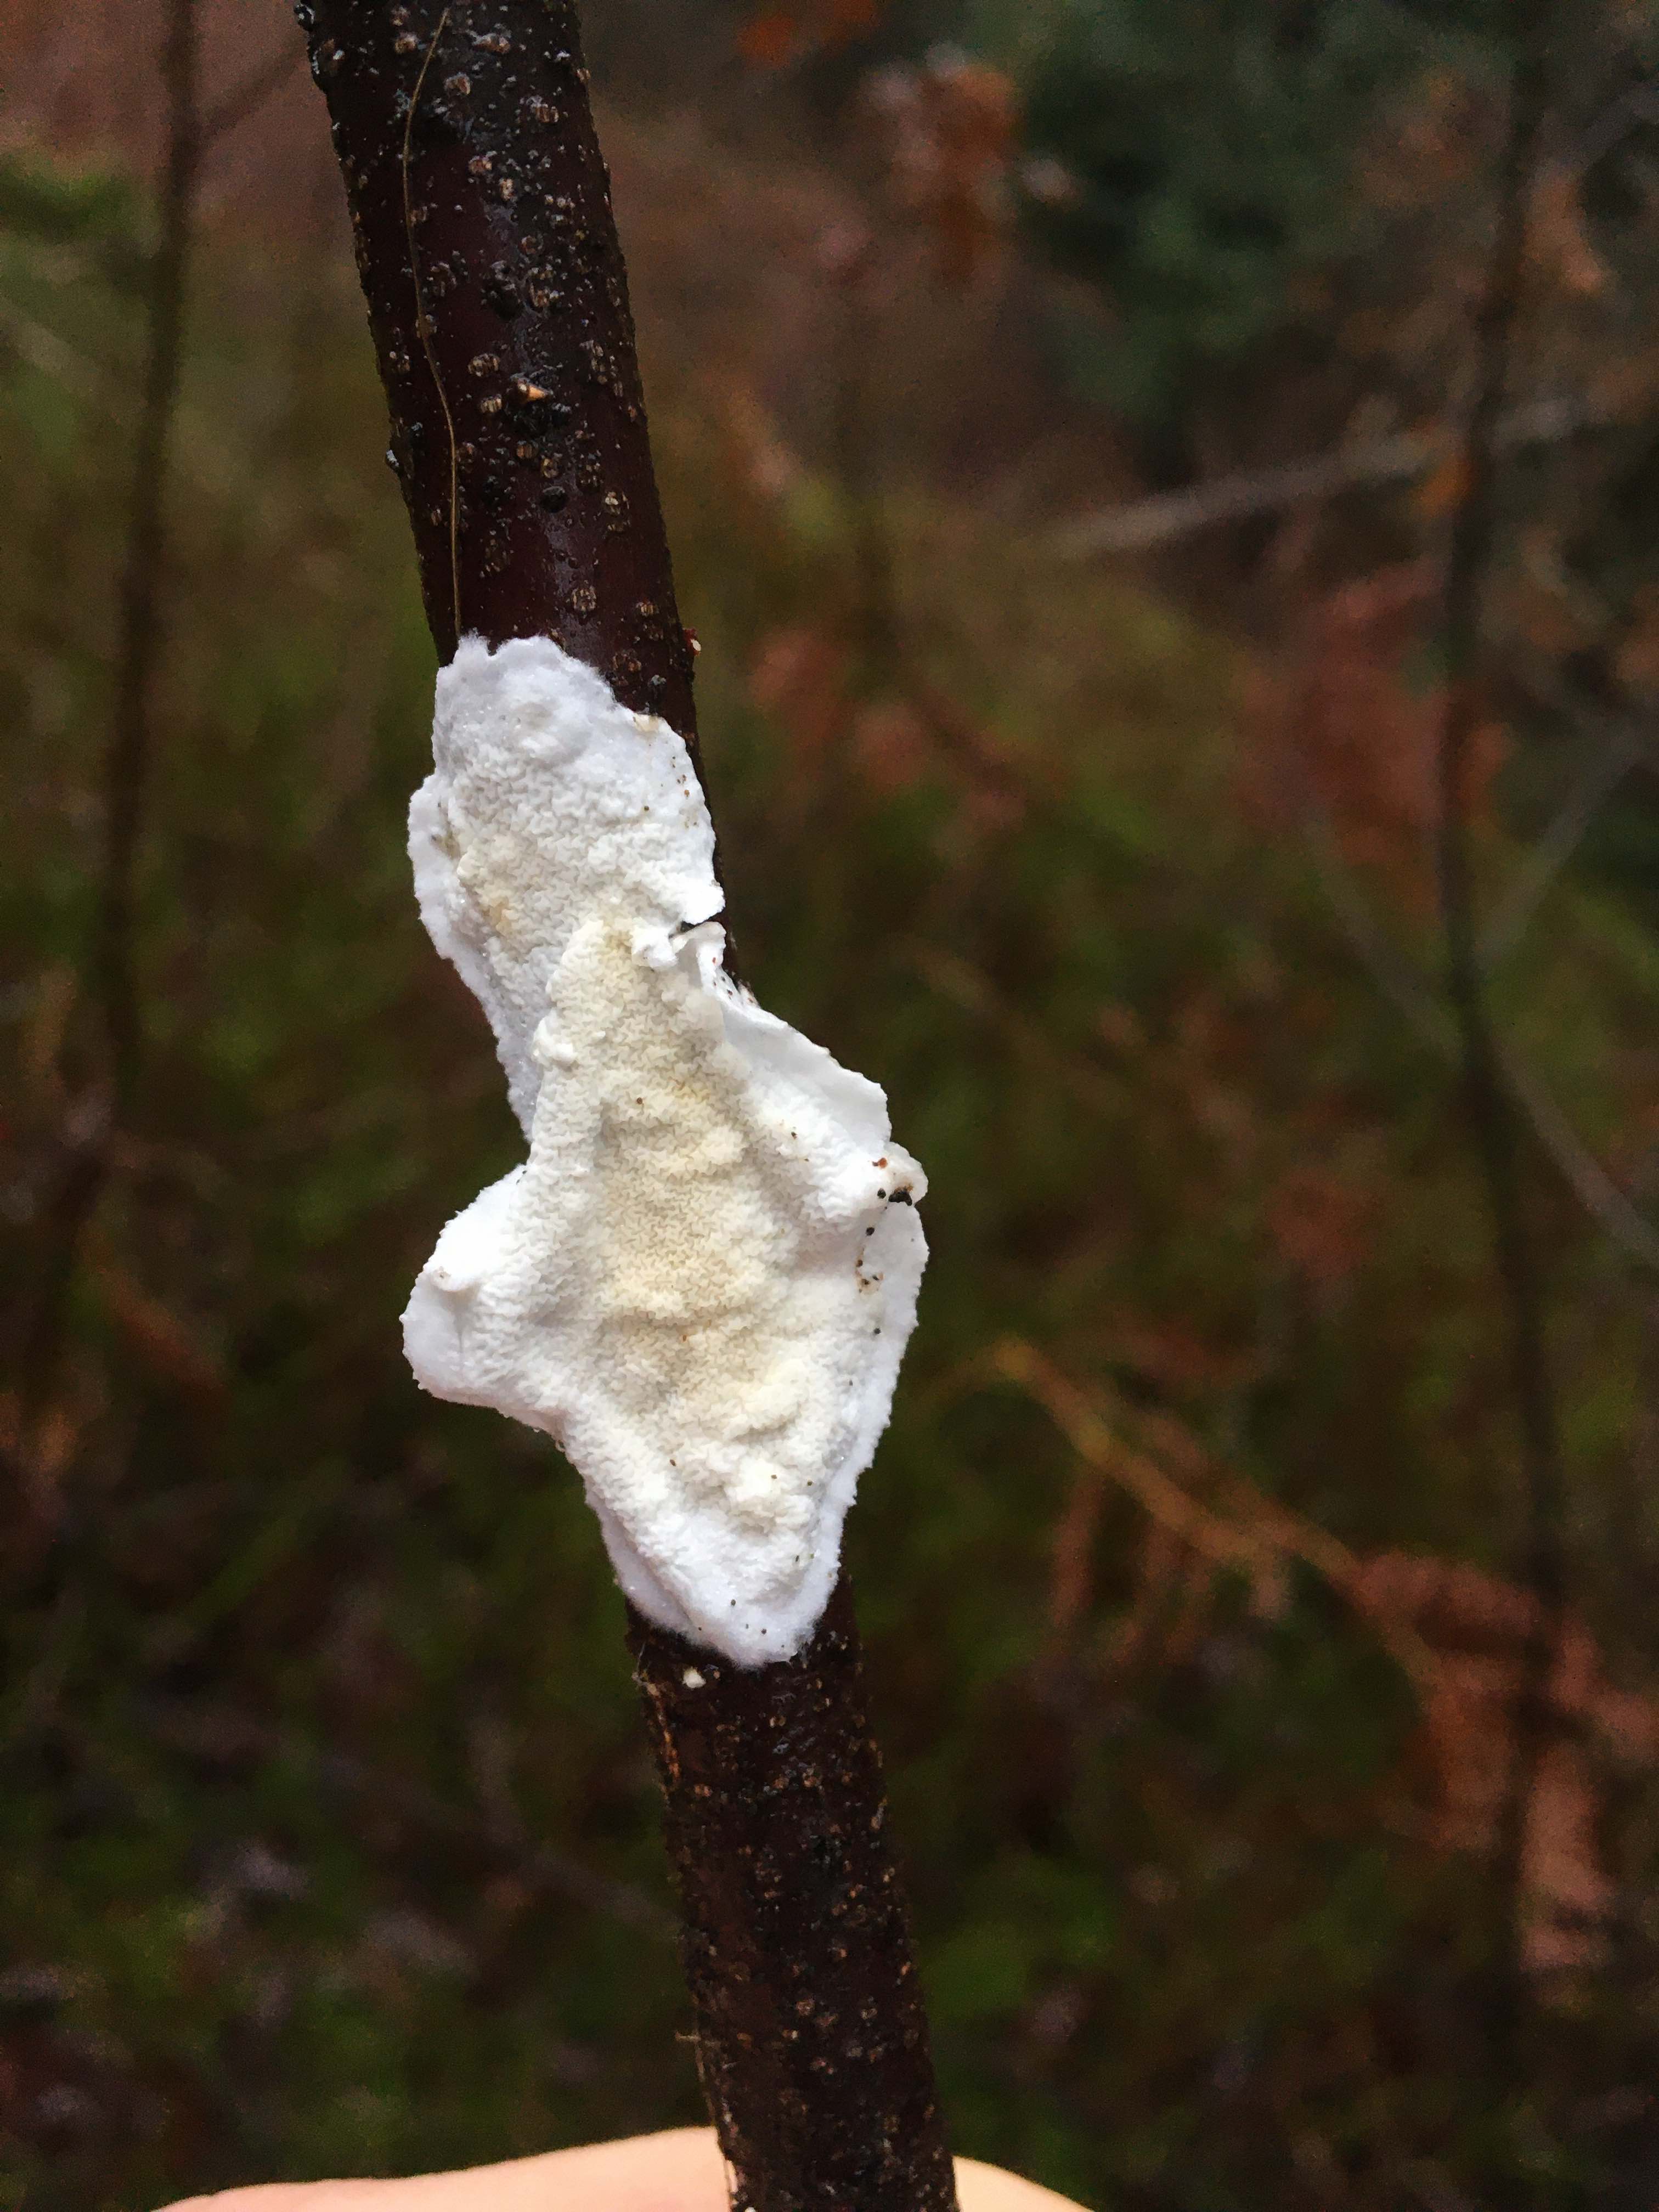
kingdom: Fungi
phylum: Basidiomycota
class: Agaricomycetes
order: Polyporales
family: Irpicaceae
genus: Byssomerulius
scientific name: Byssomerulius corium
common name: læder-åresvamp
